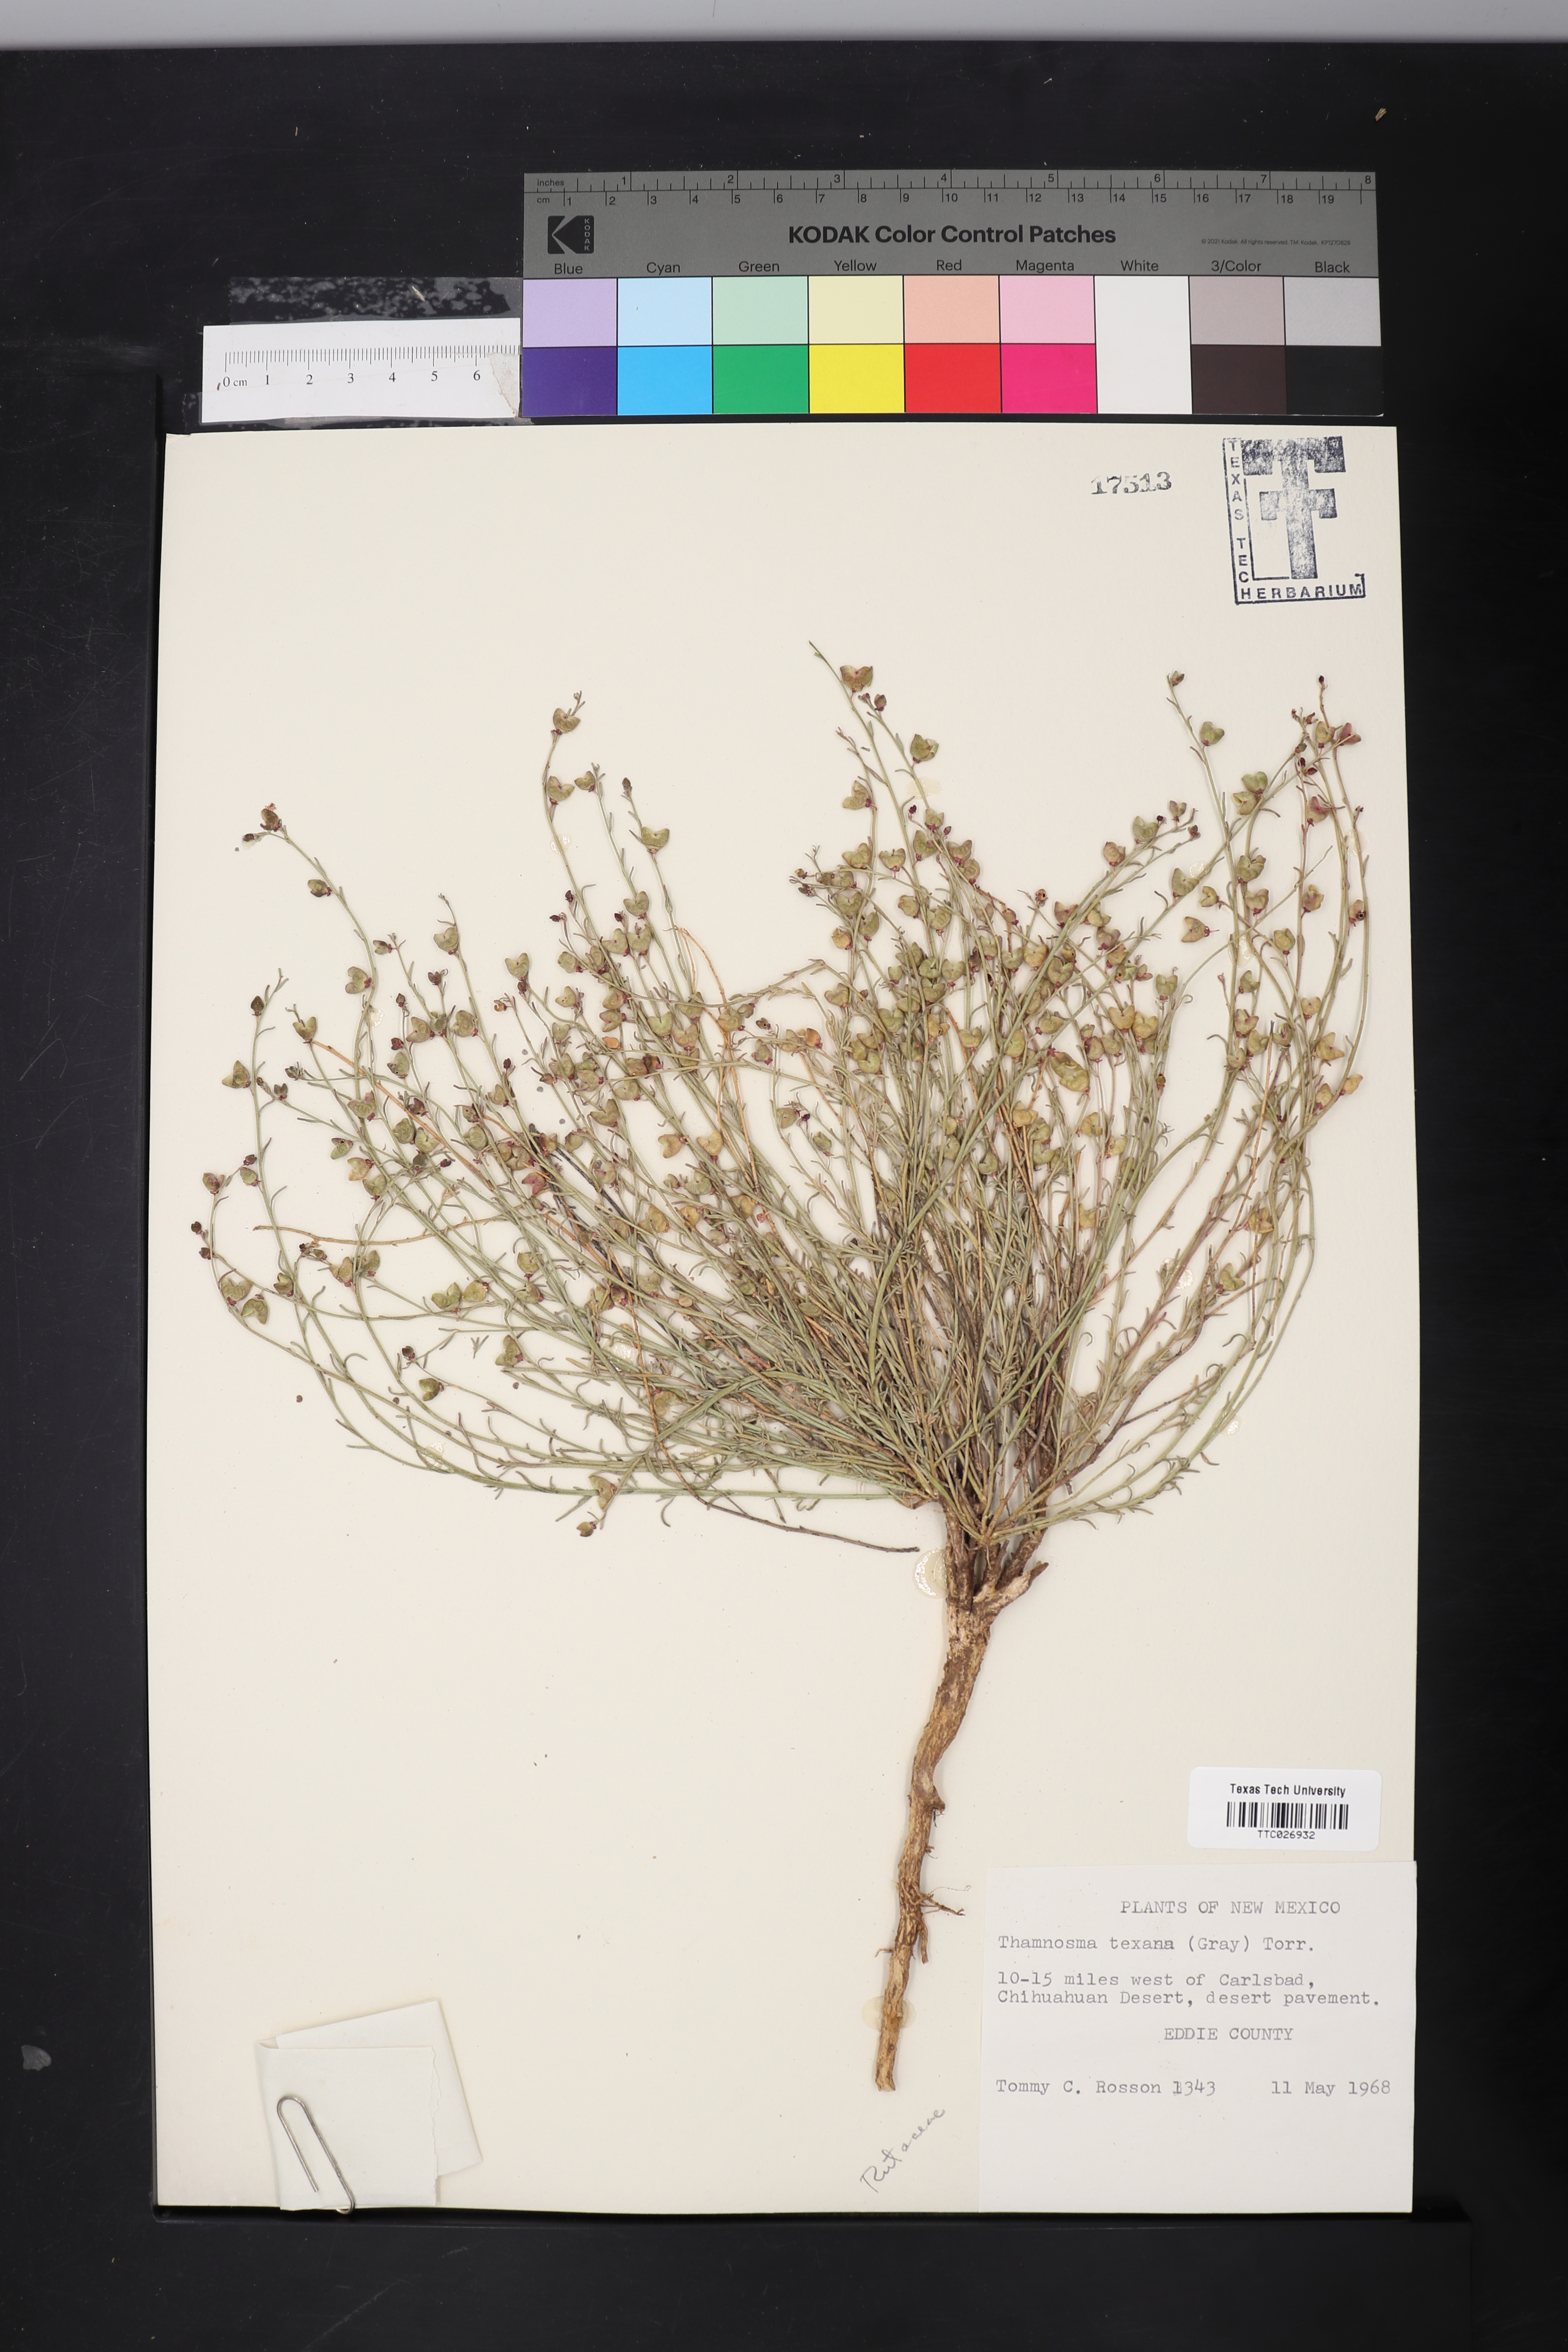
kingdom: Plantae
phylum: Tracheophyta
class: Magnoliopsida
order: Sapindales
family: Rutaceae
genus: Thamnosma
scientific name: Thamnosma texana
